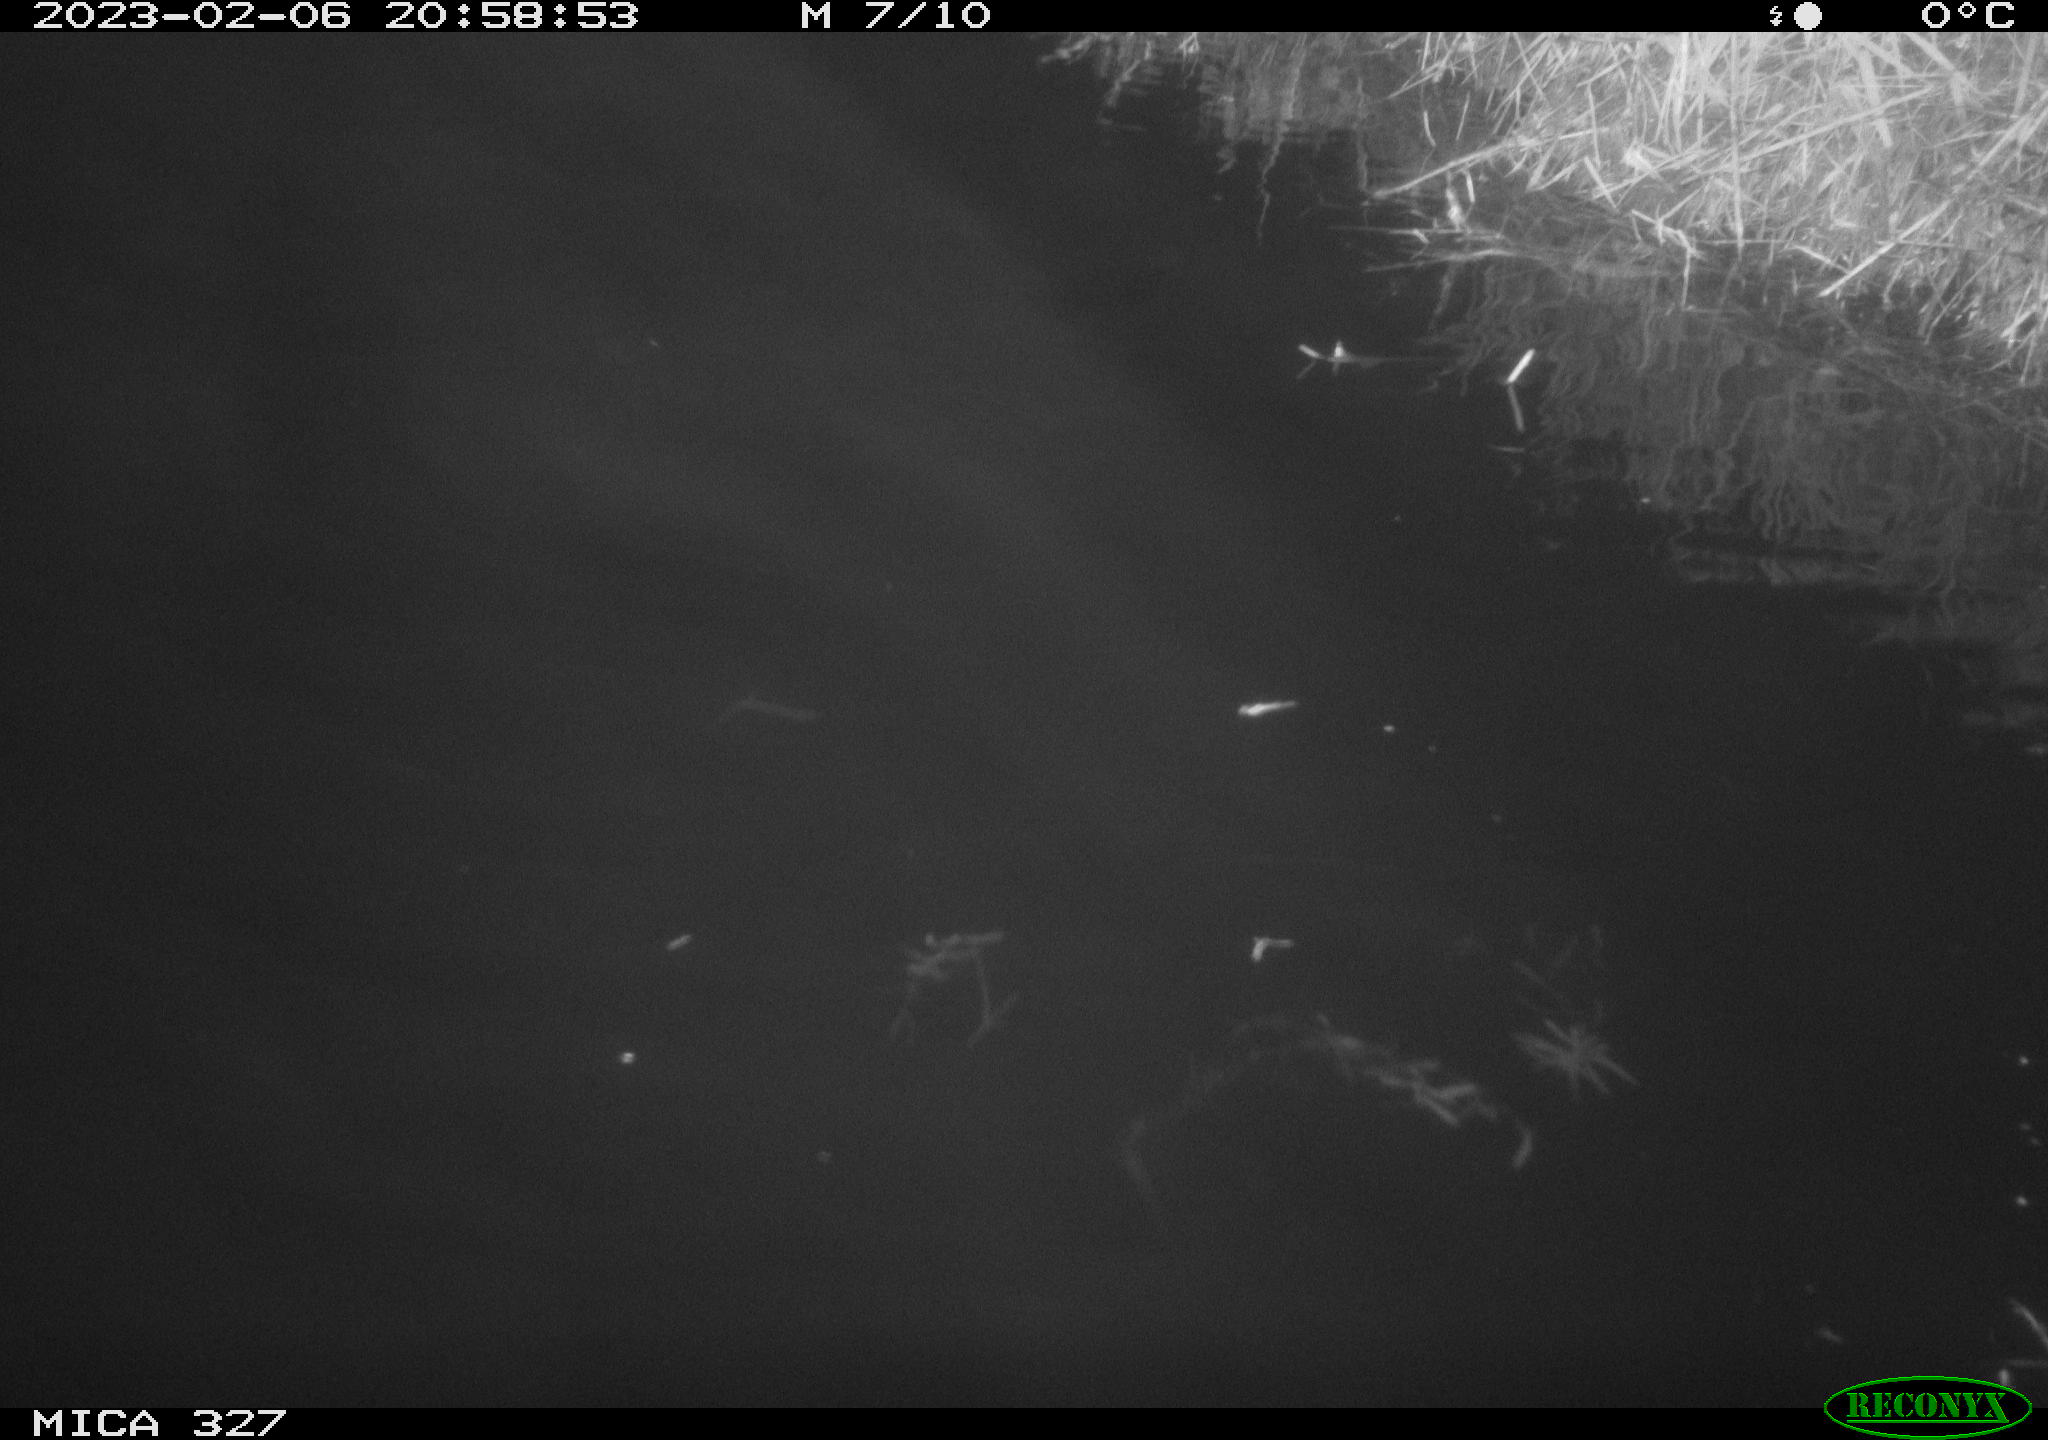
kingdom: Animalia
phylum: Chordata
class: Mammalia
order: Rodentia
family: Cricetidae
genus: Ondatra
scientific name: Ondatra zibethicus
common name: Muskrat
